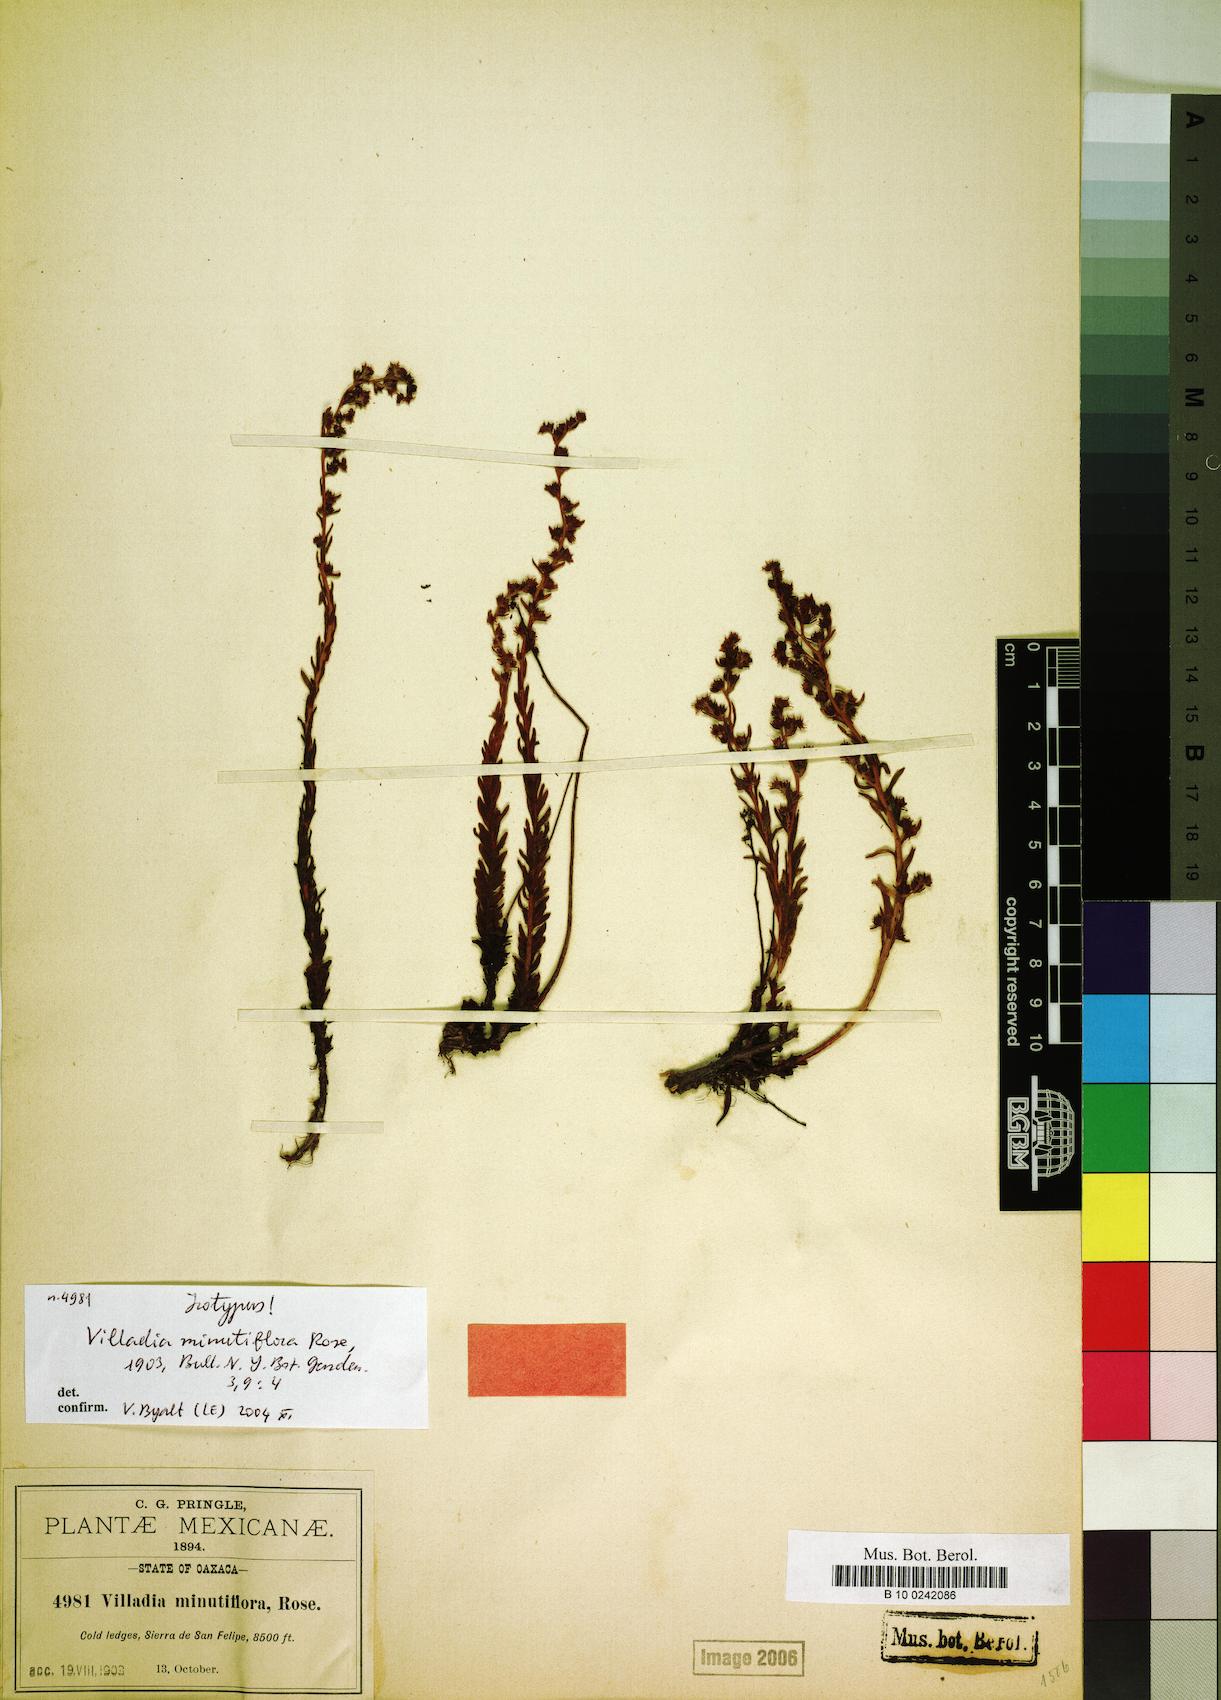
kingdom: Plantae
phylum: Tracheophyta
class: Magnoliopsida
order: Saxifragales
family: Crassulaceae
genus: Villadia
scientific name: Villadia minutiflora
